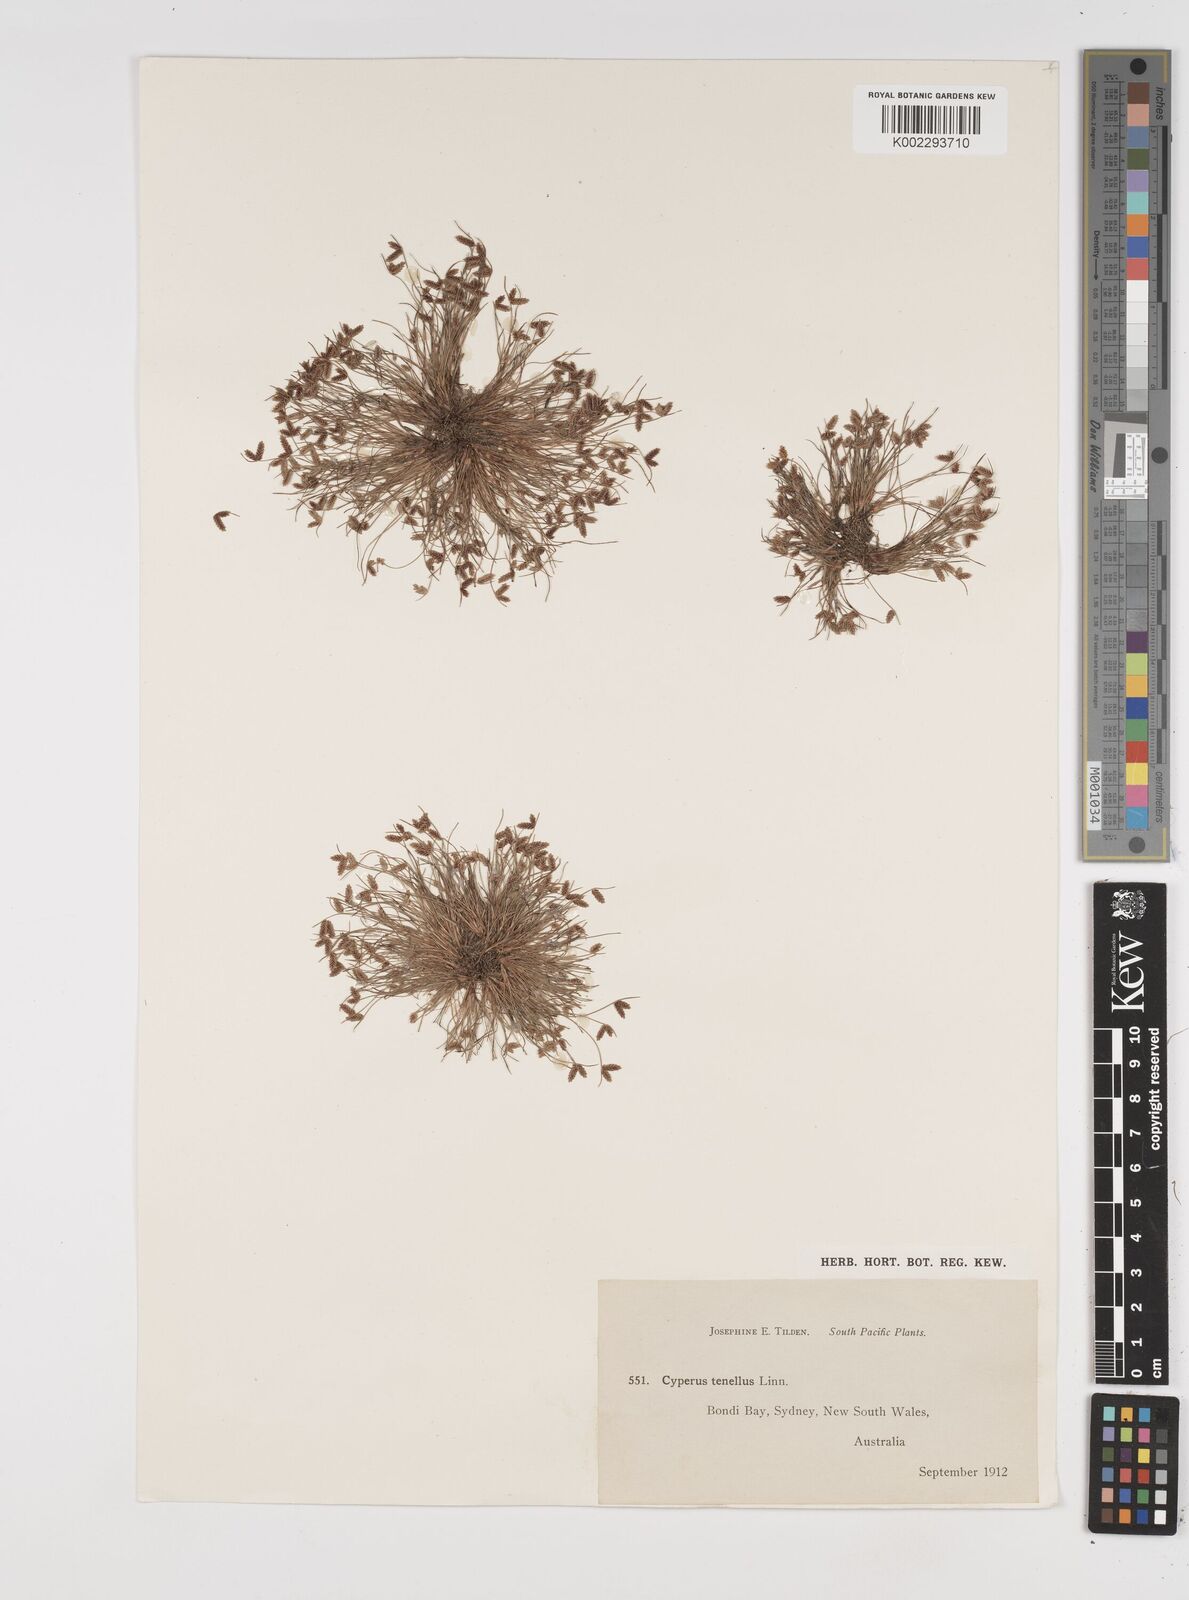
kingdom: Plantae
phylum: Tracheophyta
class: Liliopsida
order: Poales
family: Cyperaceae
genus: Isolepis
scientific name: Isolepis levynsiana
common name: Sedge
